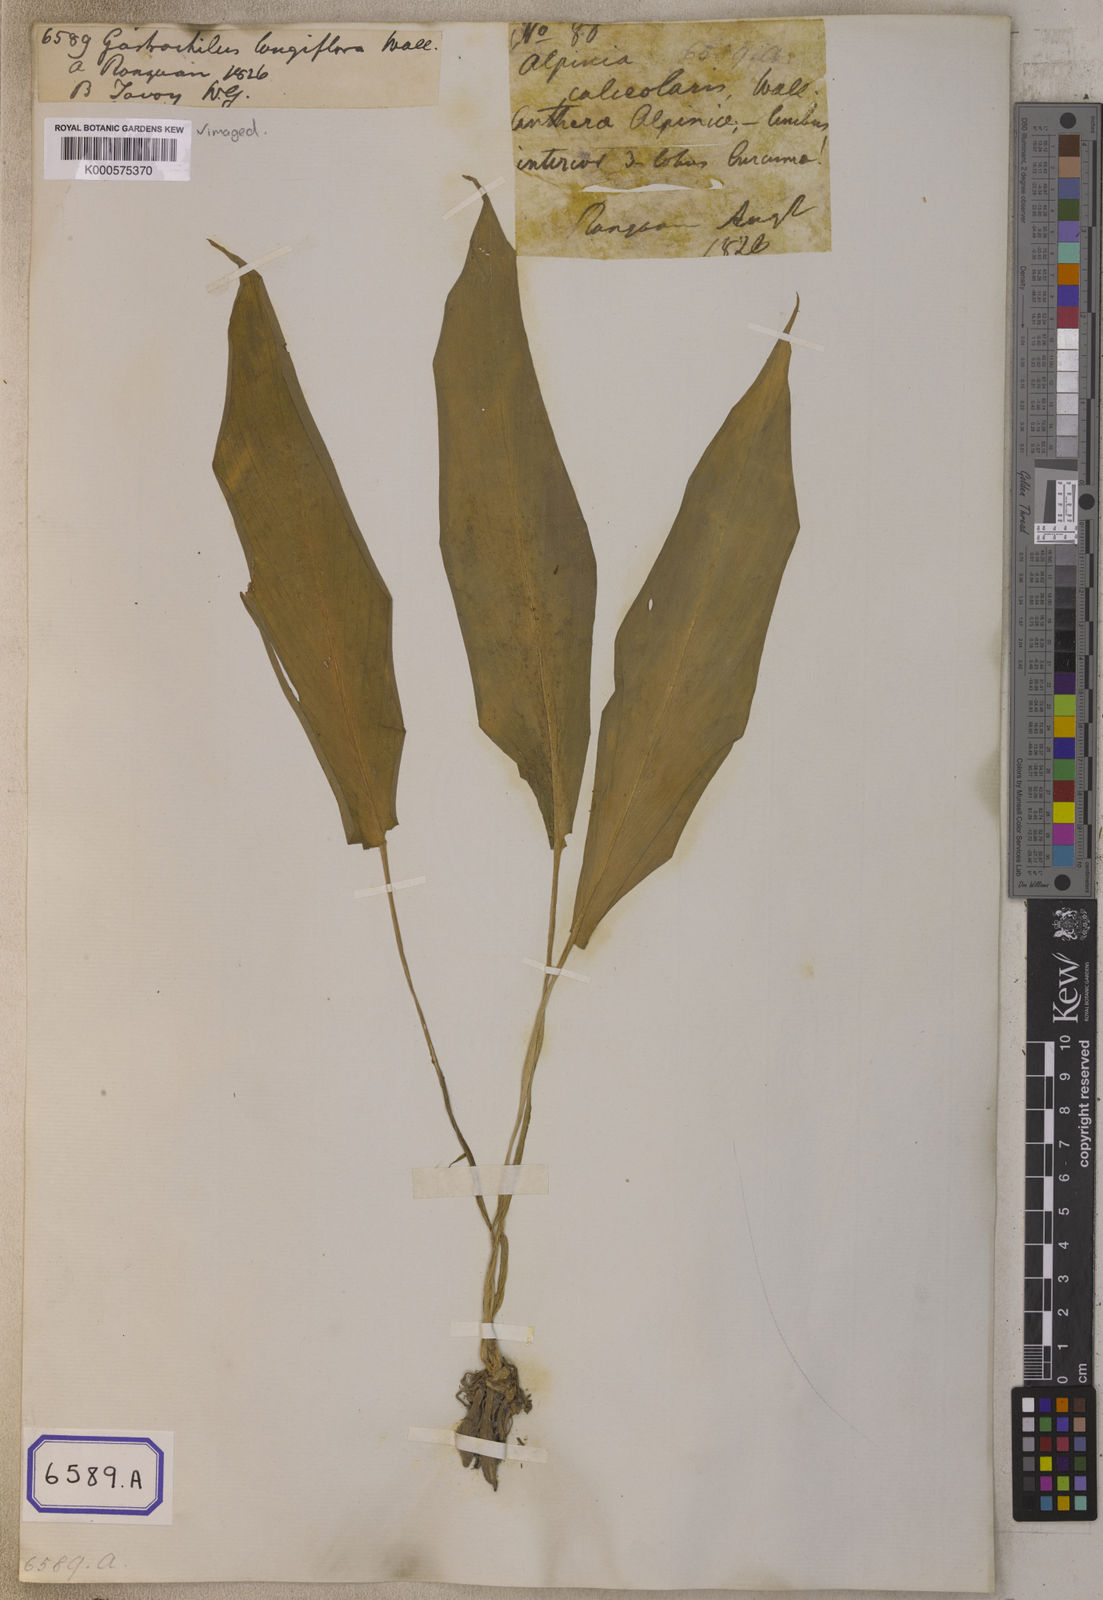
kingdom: Plantae
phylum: Tracheophyta
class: Liliopsida
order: Zingiberales
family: Zingiberaceae
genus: Boesenbergia
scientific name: Boesenbergia longiflora
